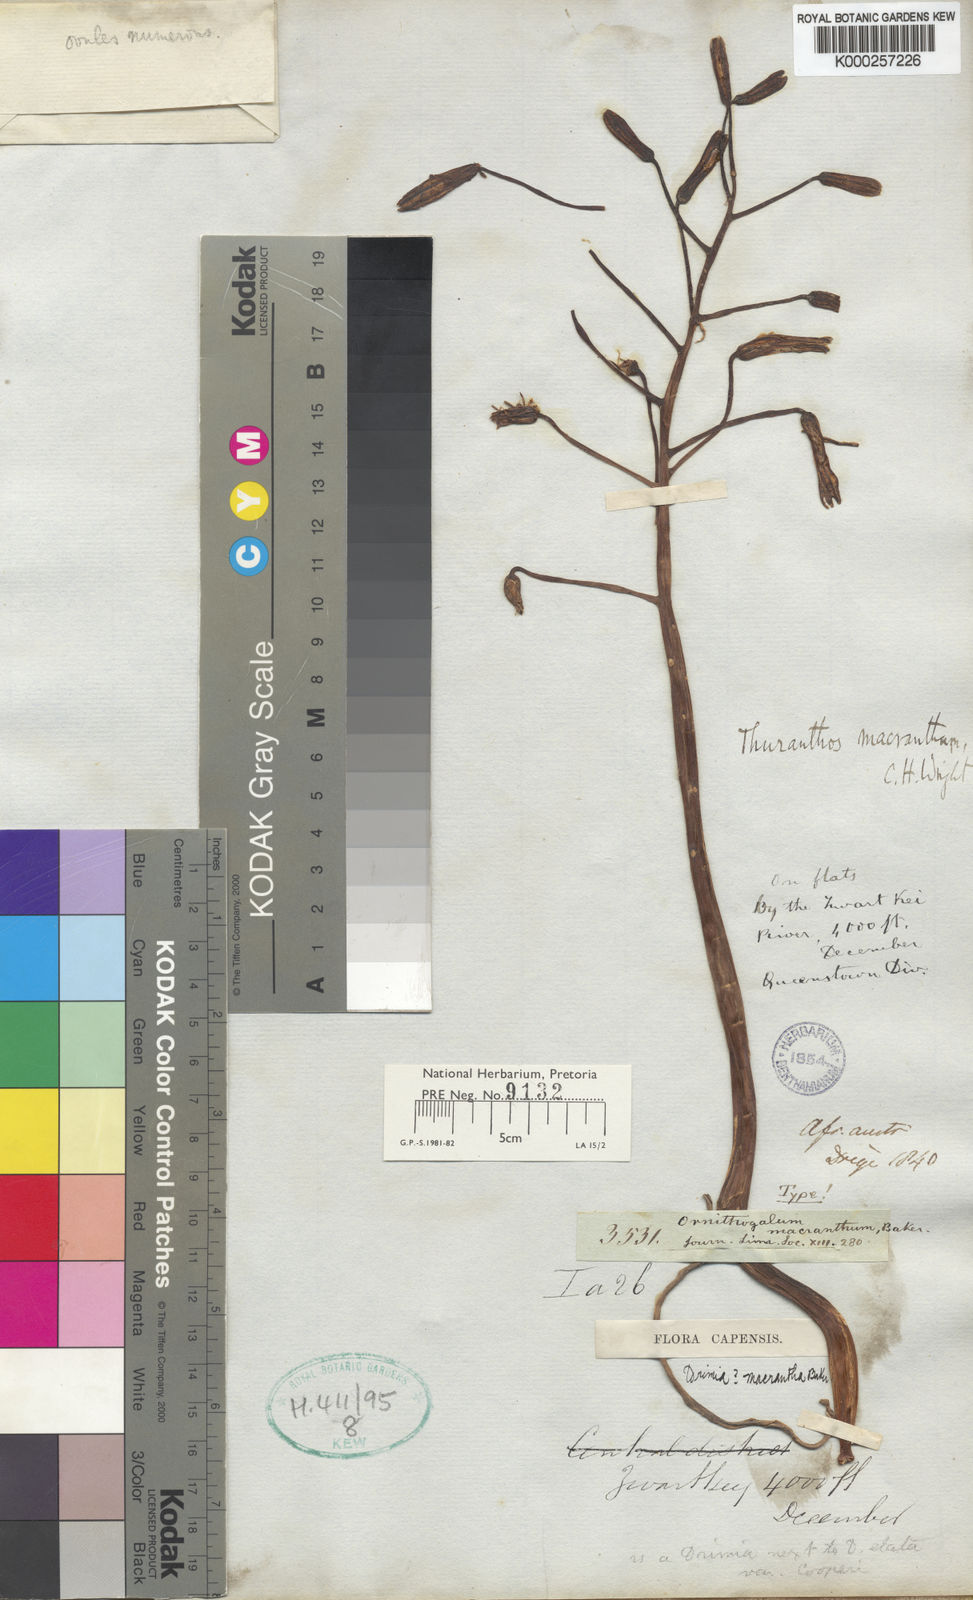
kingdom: Plantae
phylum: Tracheophyta
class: Liliopsida
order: Asparagales
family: Asparagaceae
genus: Drimia
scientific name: Drimia macrantha
